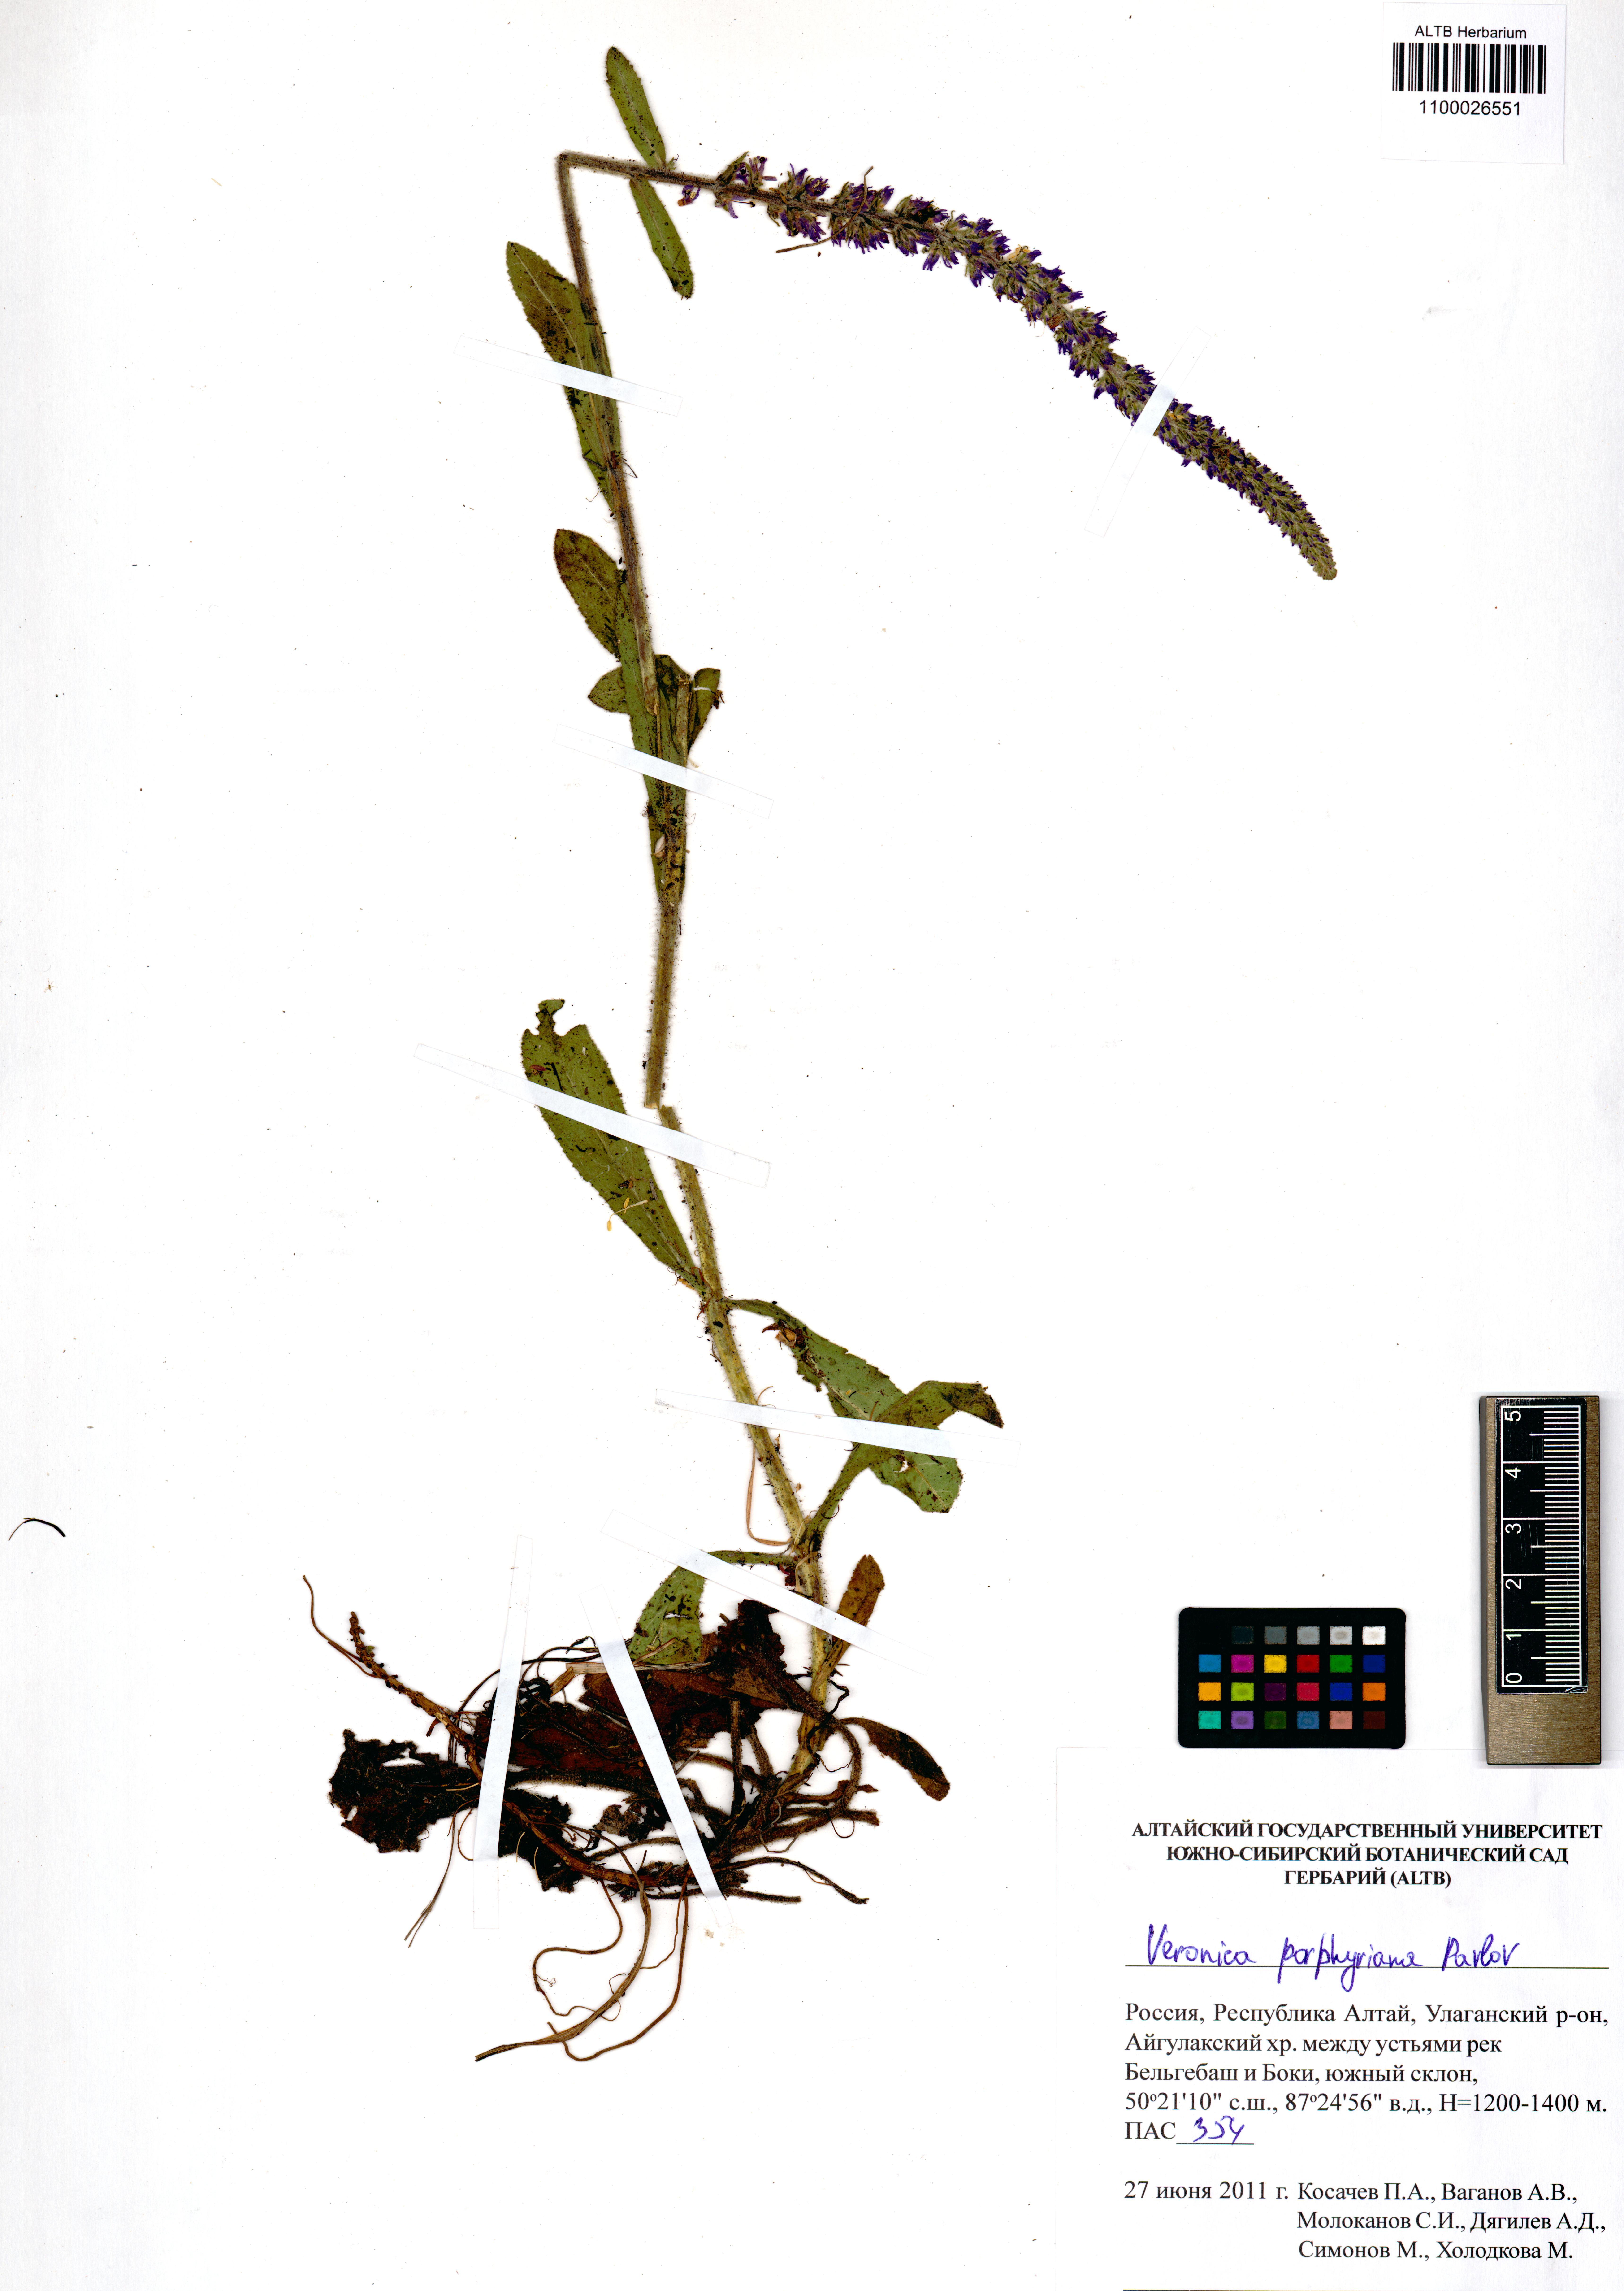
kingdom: Plantae
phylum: Tracheophyta
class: Magnoliopsida
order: Lamiales
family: Plantaginaceae
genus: Veronica
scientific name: Veronica porphyriana
